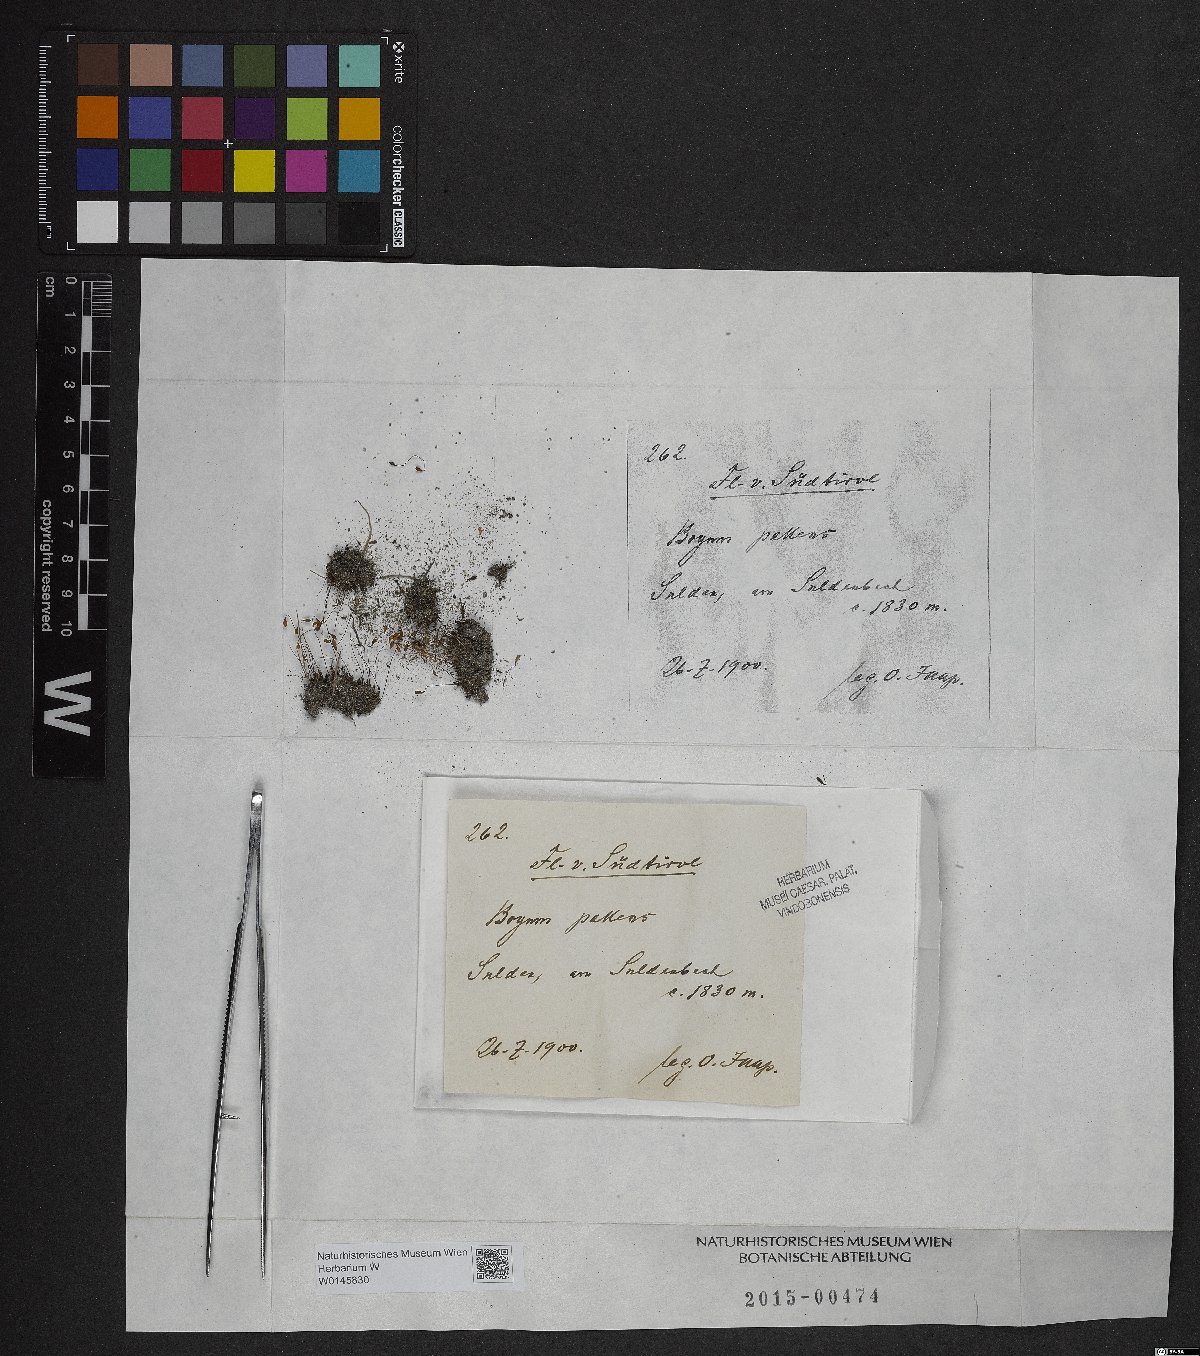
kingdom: Plantae
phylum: Bryophyta
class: Bryopsida
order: Bryales
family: Bryaceae
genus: Ptychostomum
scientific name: Ptychostomum pallens
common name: Pale thread-moss
